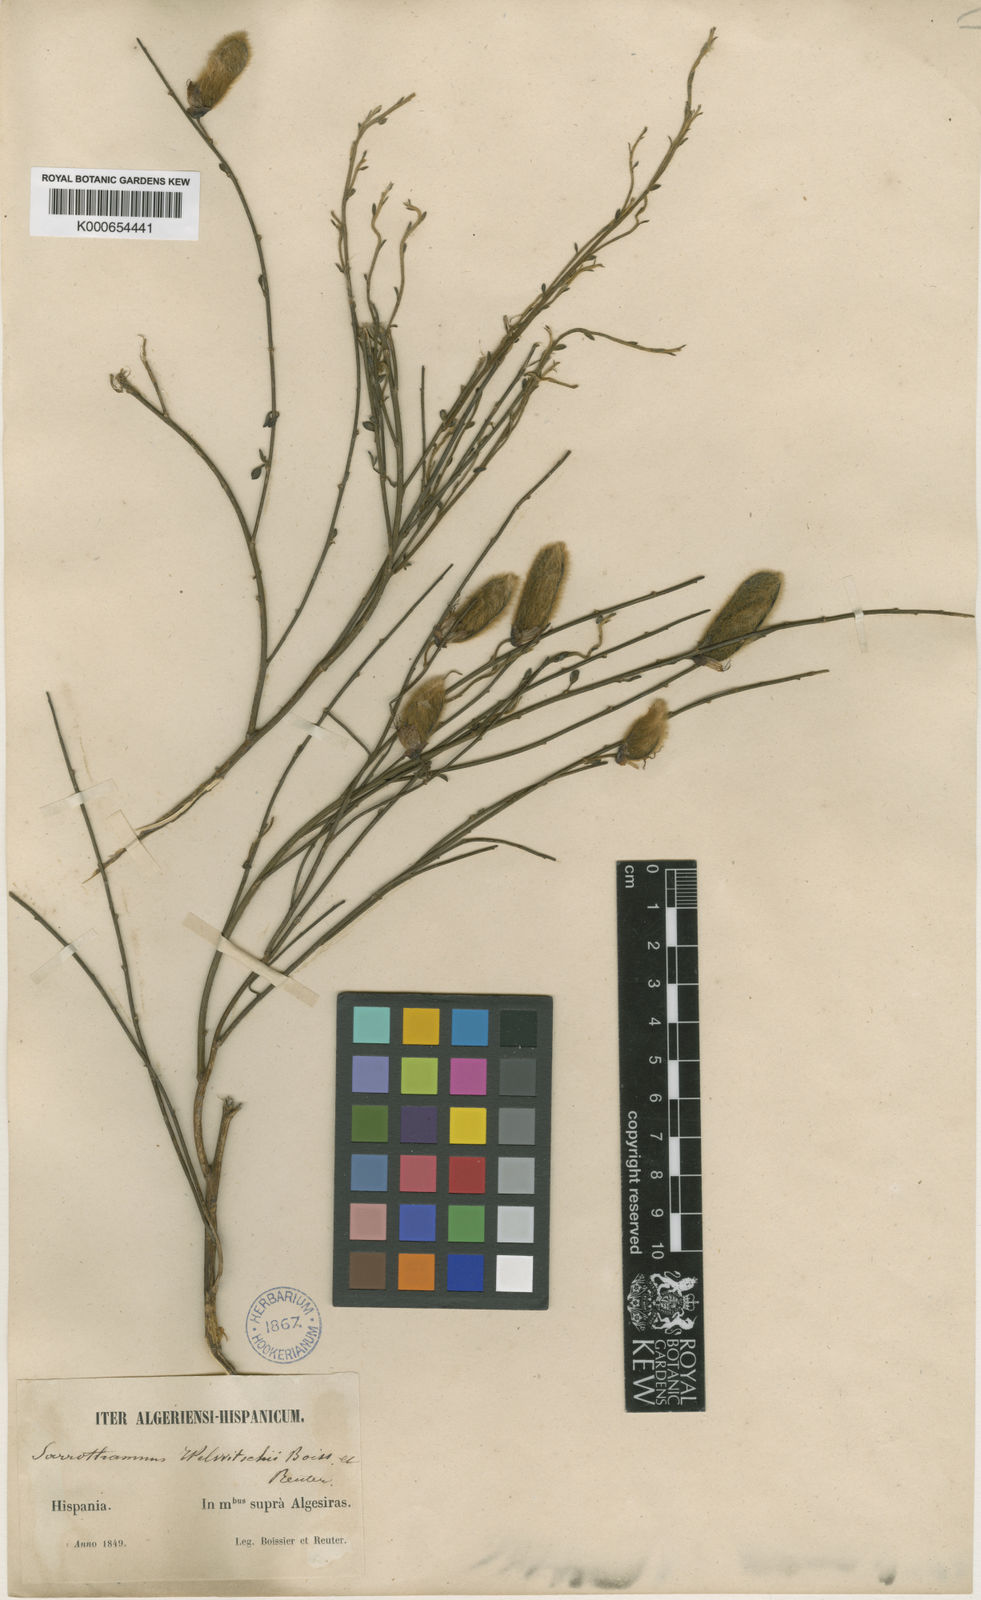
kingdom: Plantae
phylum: Tracheophyta
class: Magnoliopsida
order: Fabales
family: Fabaceae
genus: Cytisus
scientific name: Cytisus striatus
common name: Hairy-fruited broom
